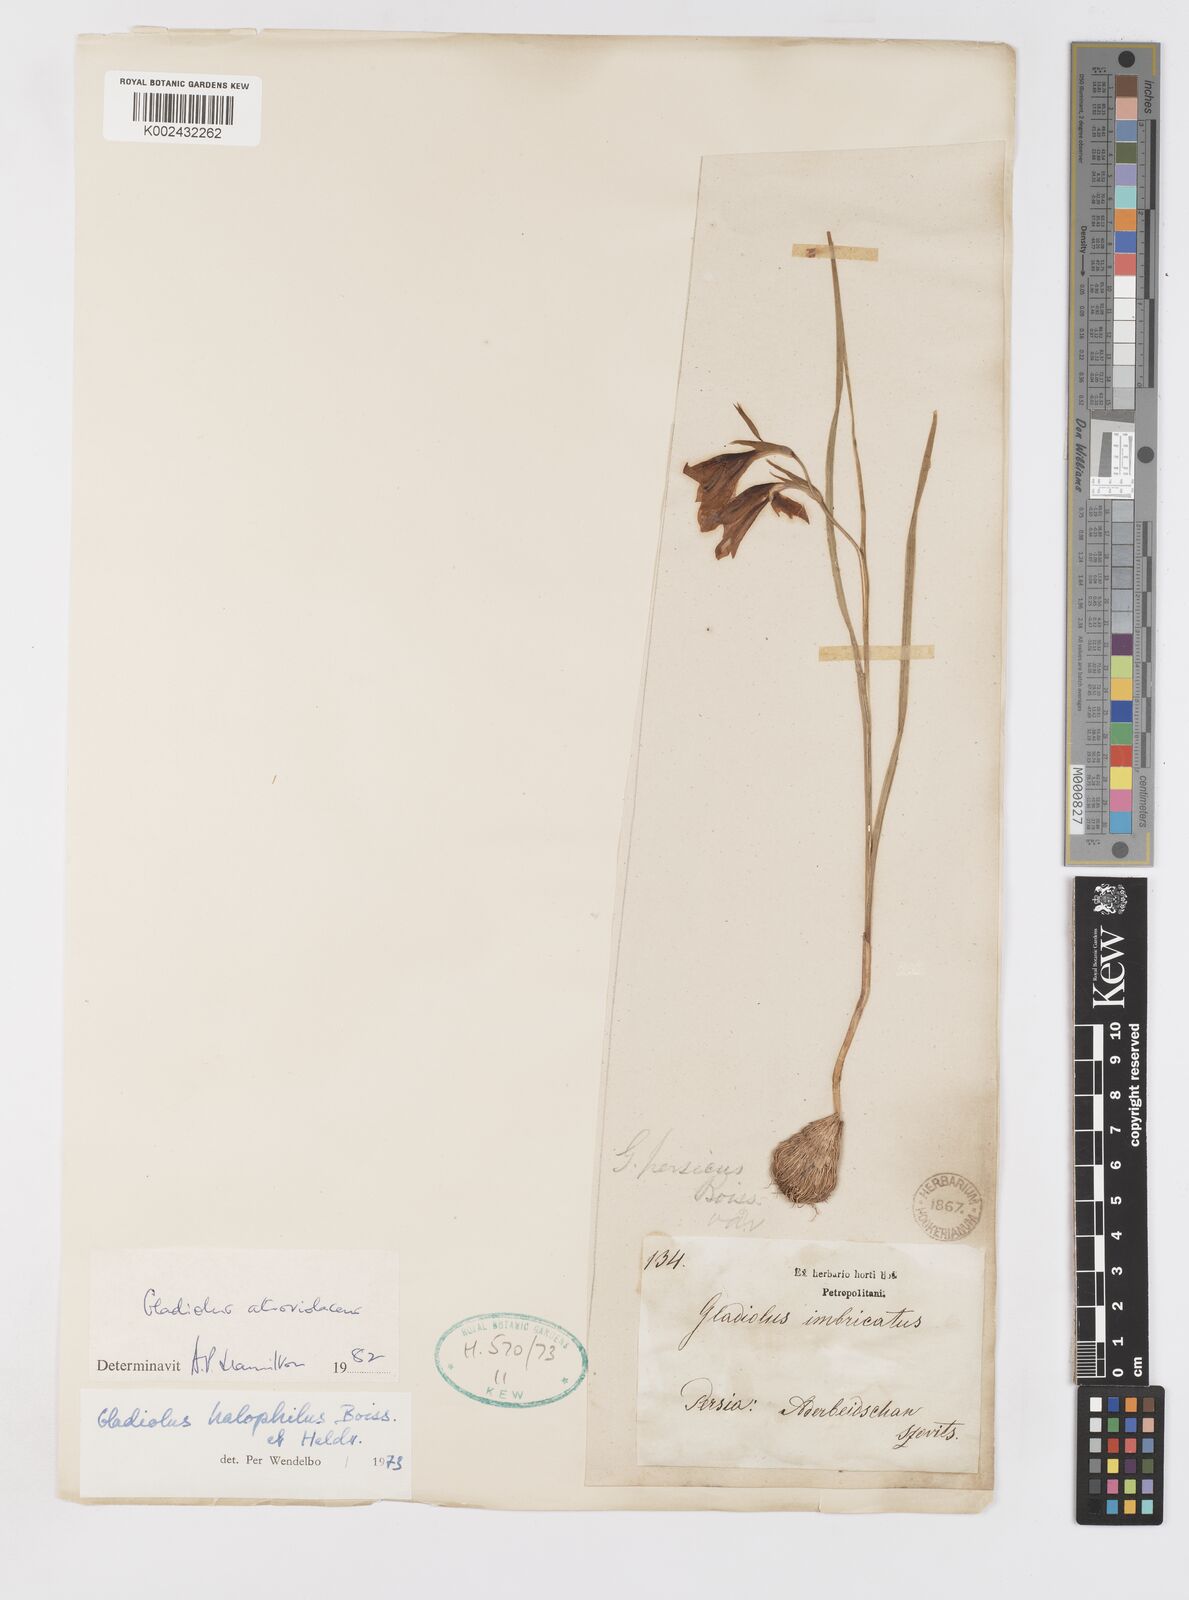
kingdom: Plantae
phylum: Tracheophyta
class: Liliopsida
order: Asparagales
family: Iridaceae
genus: Gladiolus
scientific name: Gladiolus atroviolaceus
